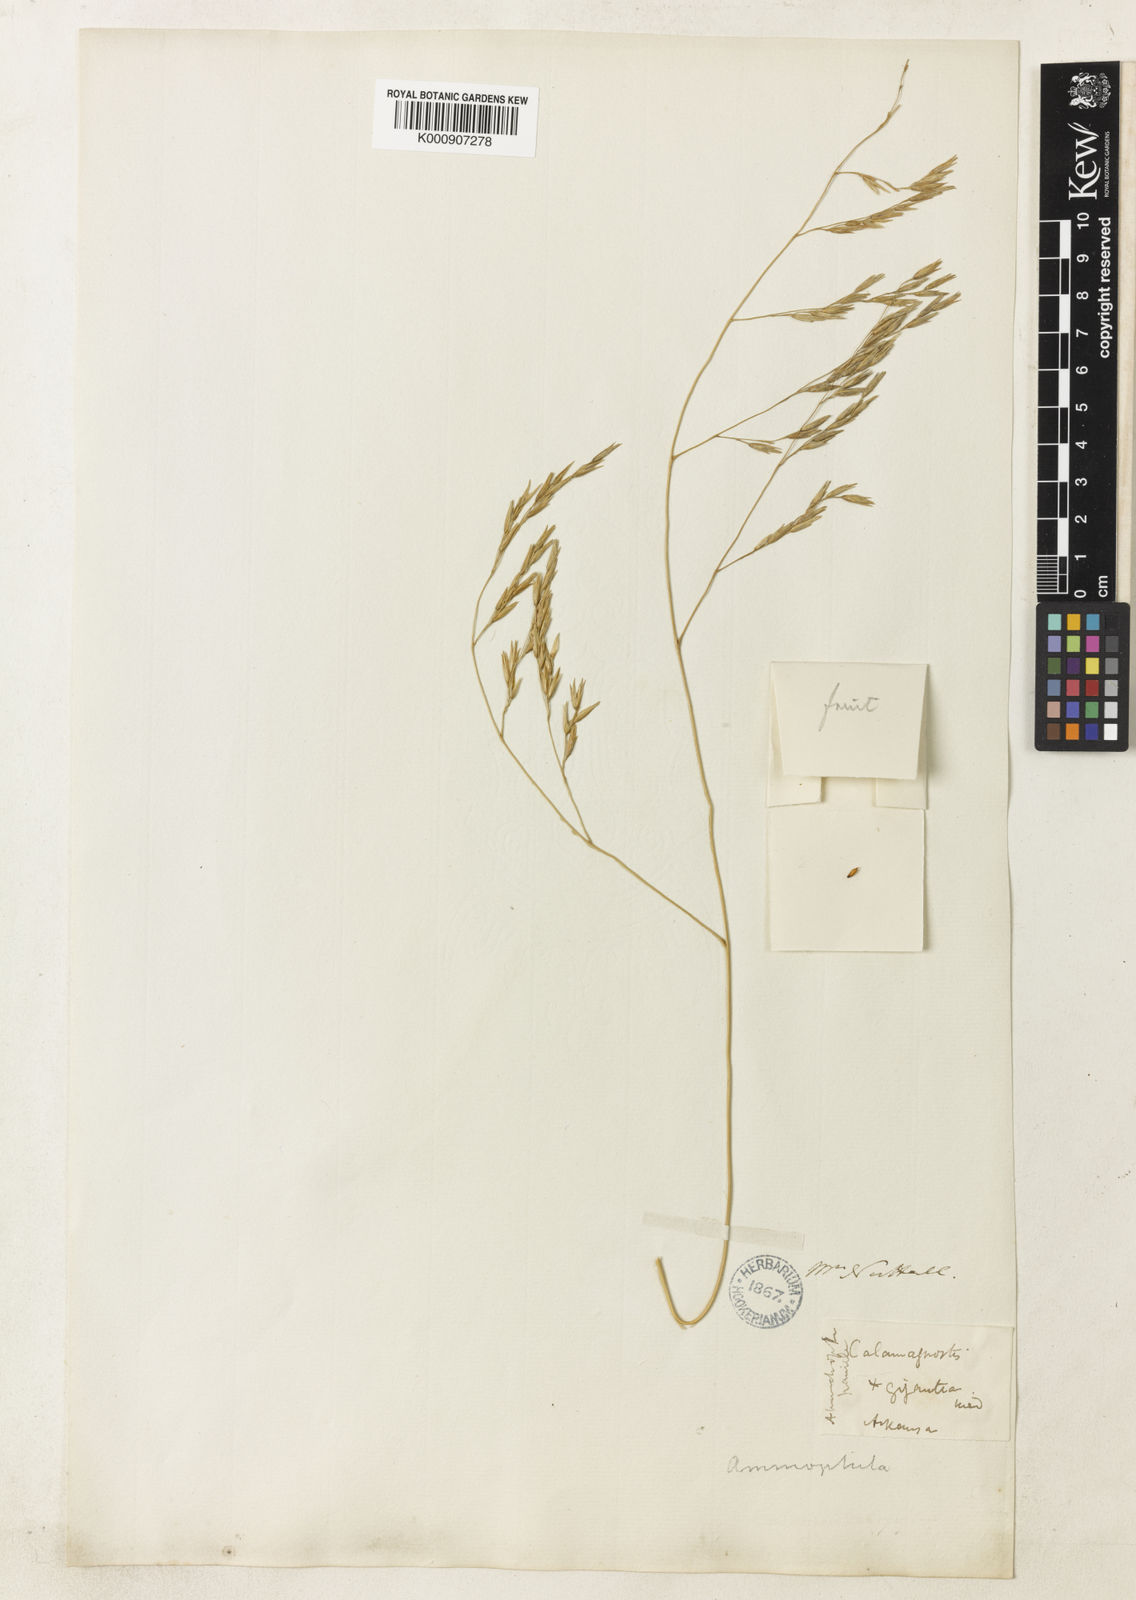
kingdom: Plantae
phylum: Tracheophyta
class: Liliopsida
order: Poales
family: Poaceae
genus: Sporobolus
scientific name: Sporobolus arenicola
